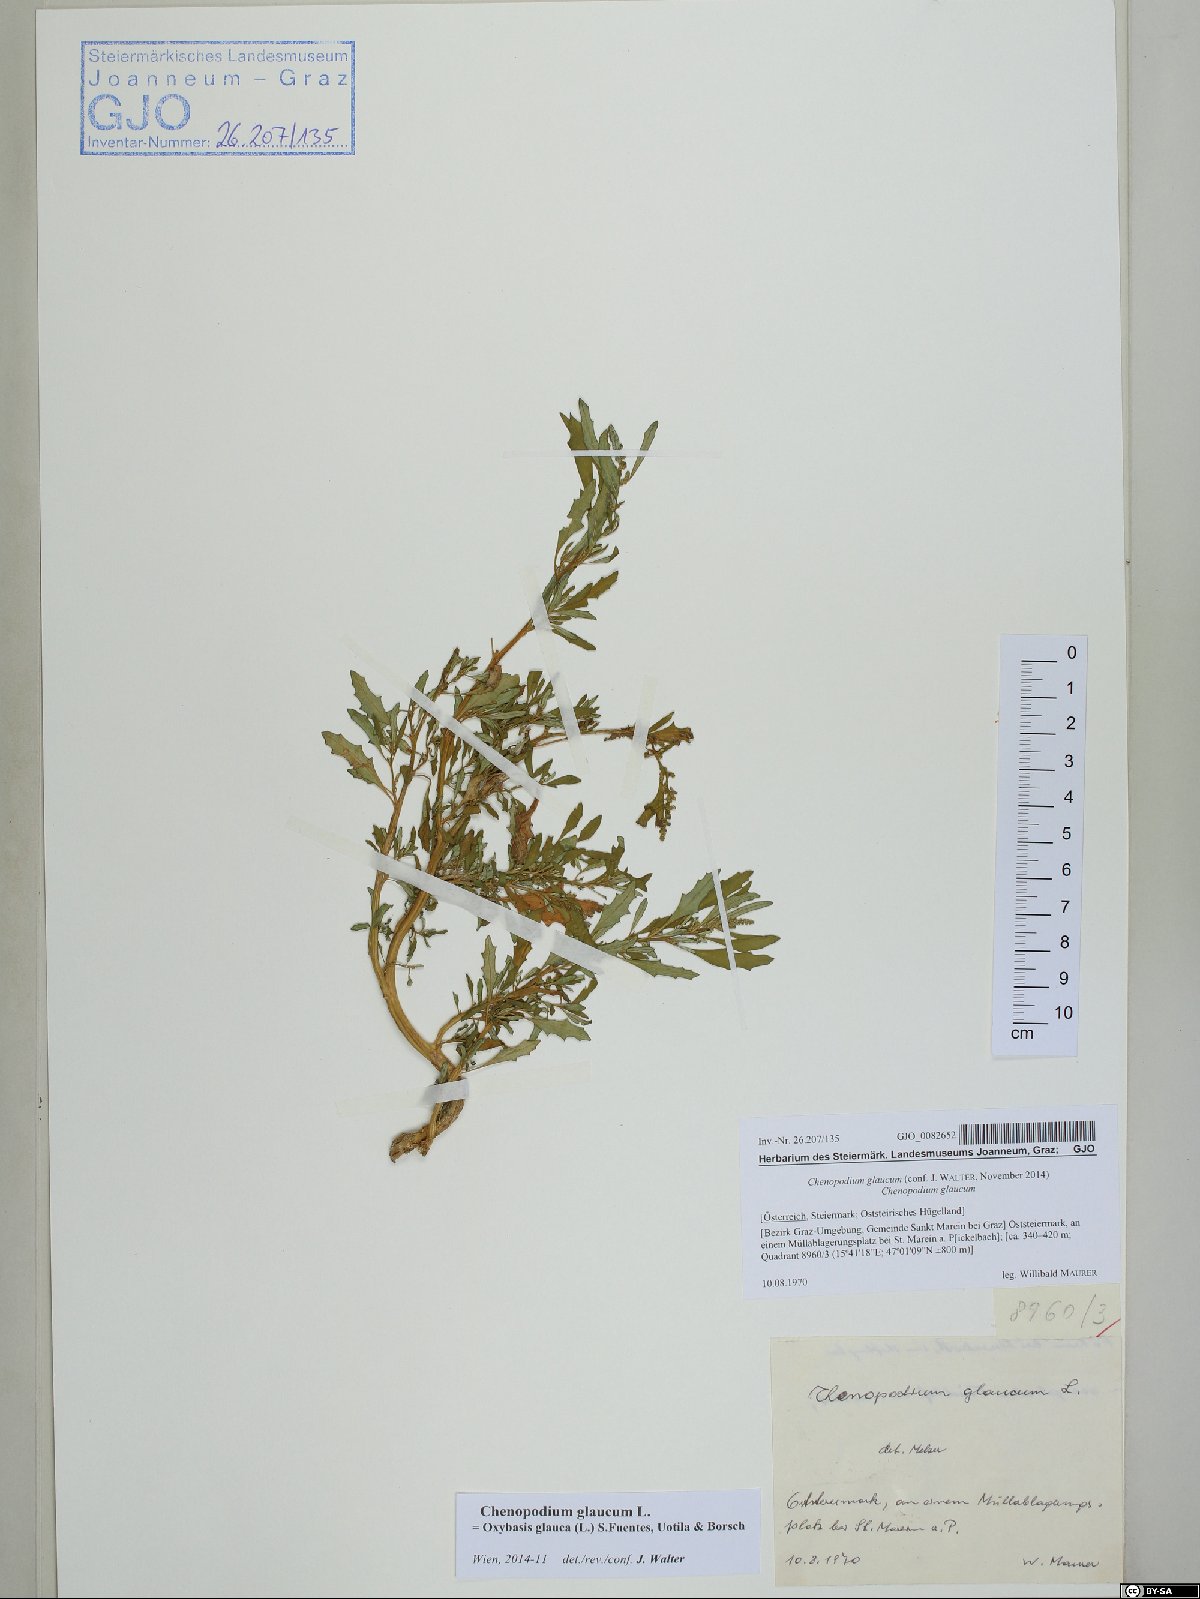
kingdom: Plantae
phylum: Tracheophyta
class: Magnoliopsida
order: Caryophyllales
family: Amaranthaceae
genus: Oxybasis
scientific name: Oxybasis glauca
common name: Glaucous goosefoot
